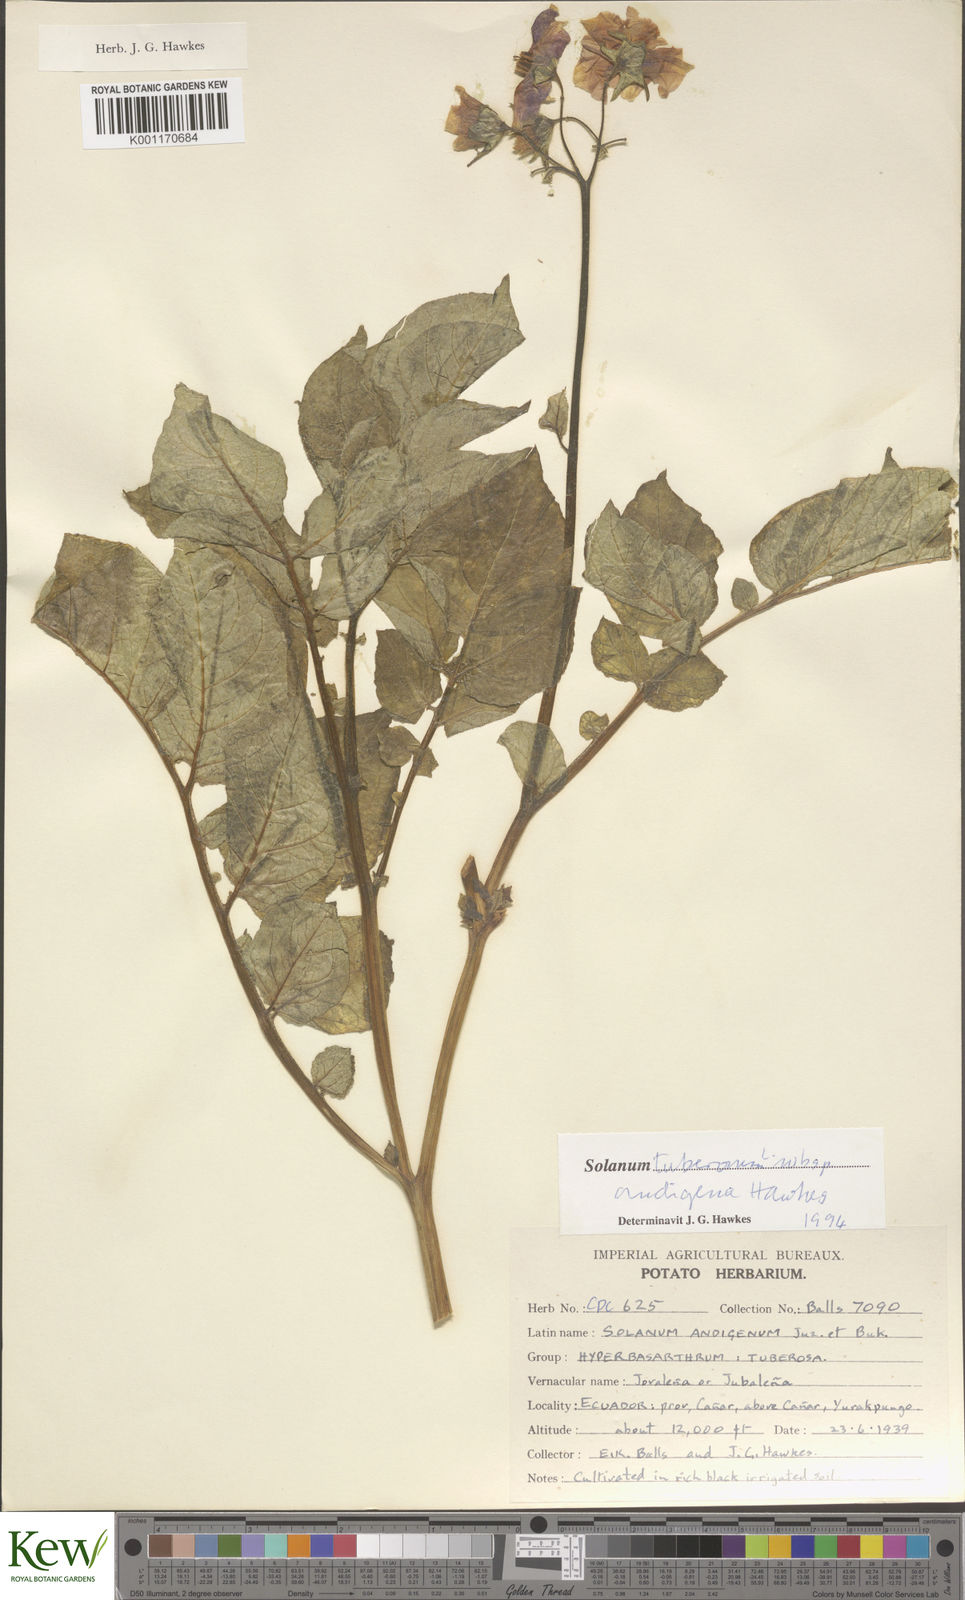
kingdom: Plantae
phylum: Tracheophyta
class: Magnoliopsida
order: Solanales
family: Solanaceae
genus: Solanum
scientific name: Solanum tuberosum
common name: Potato
